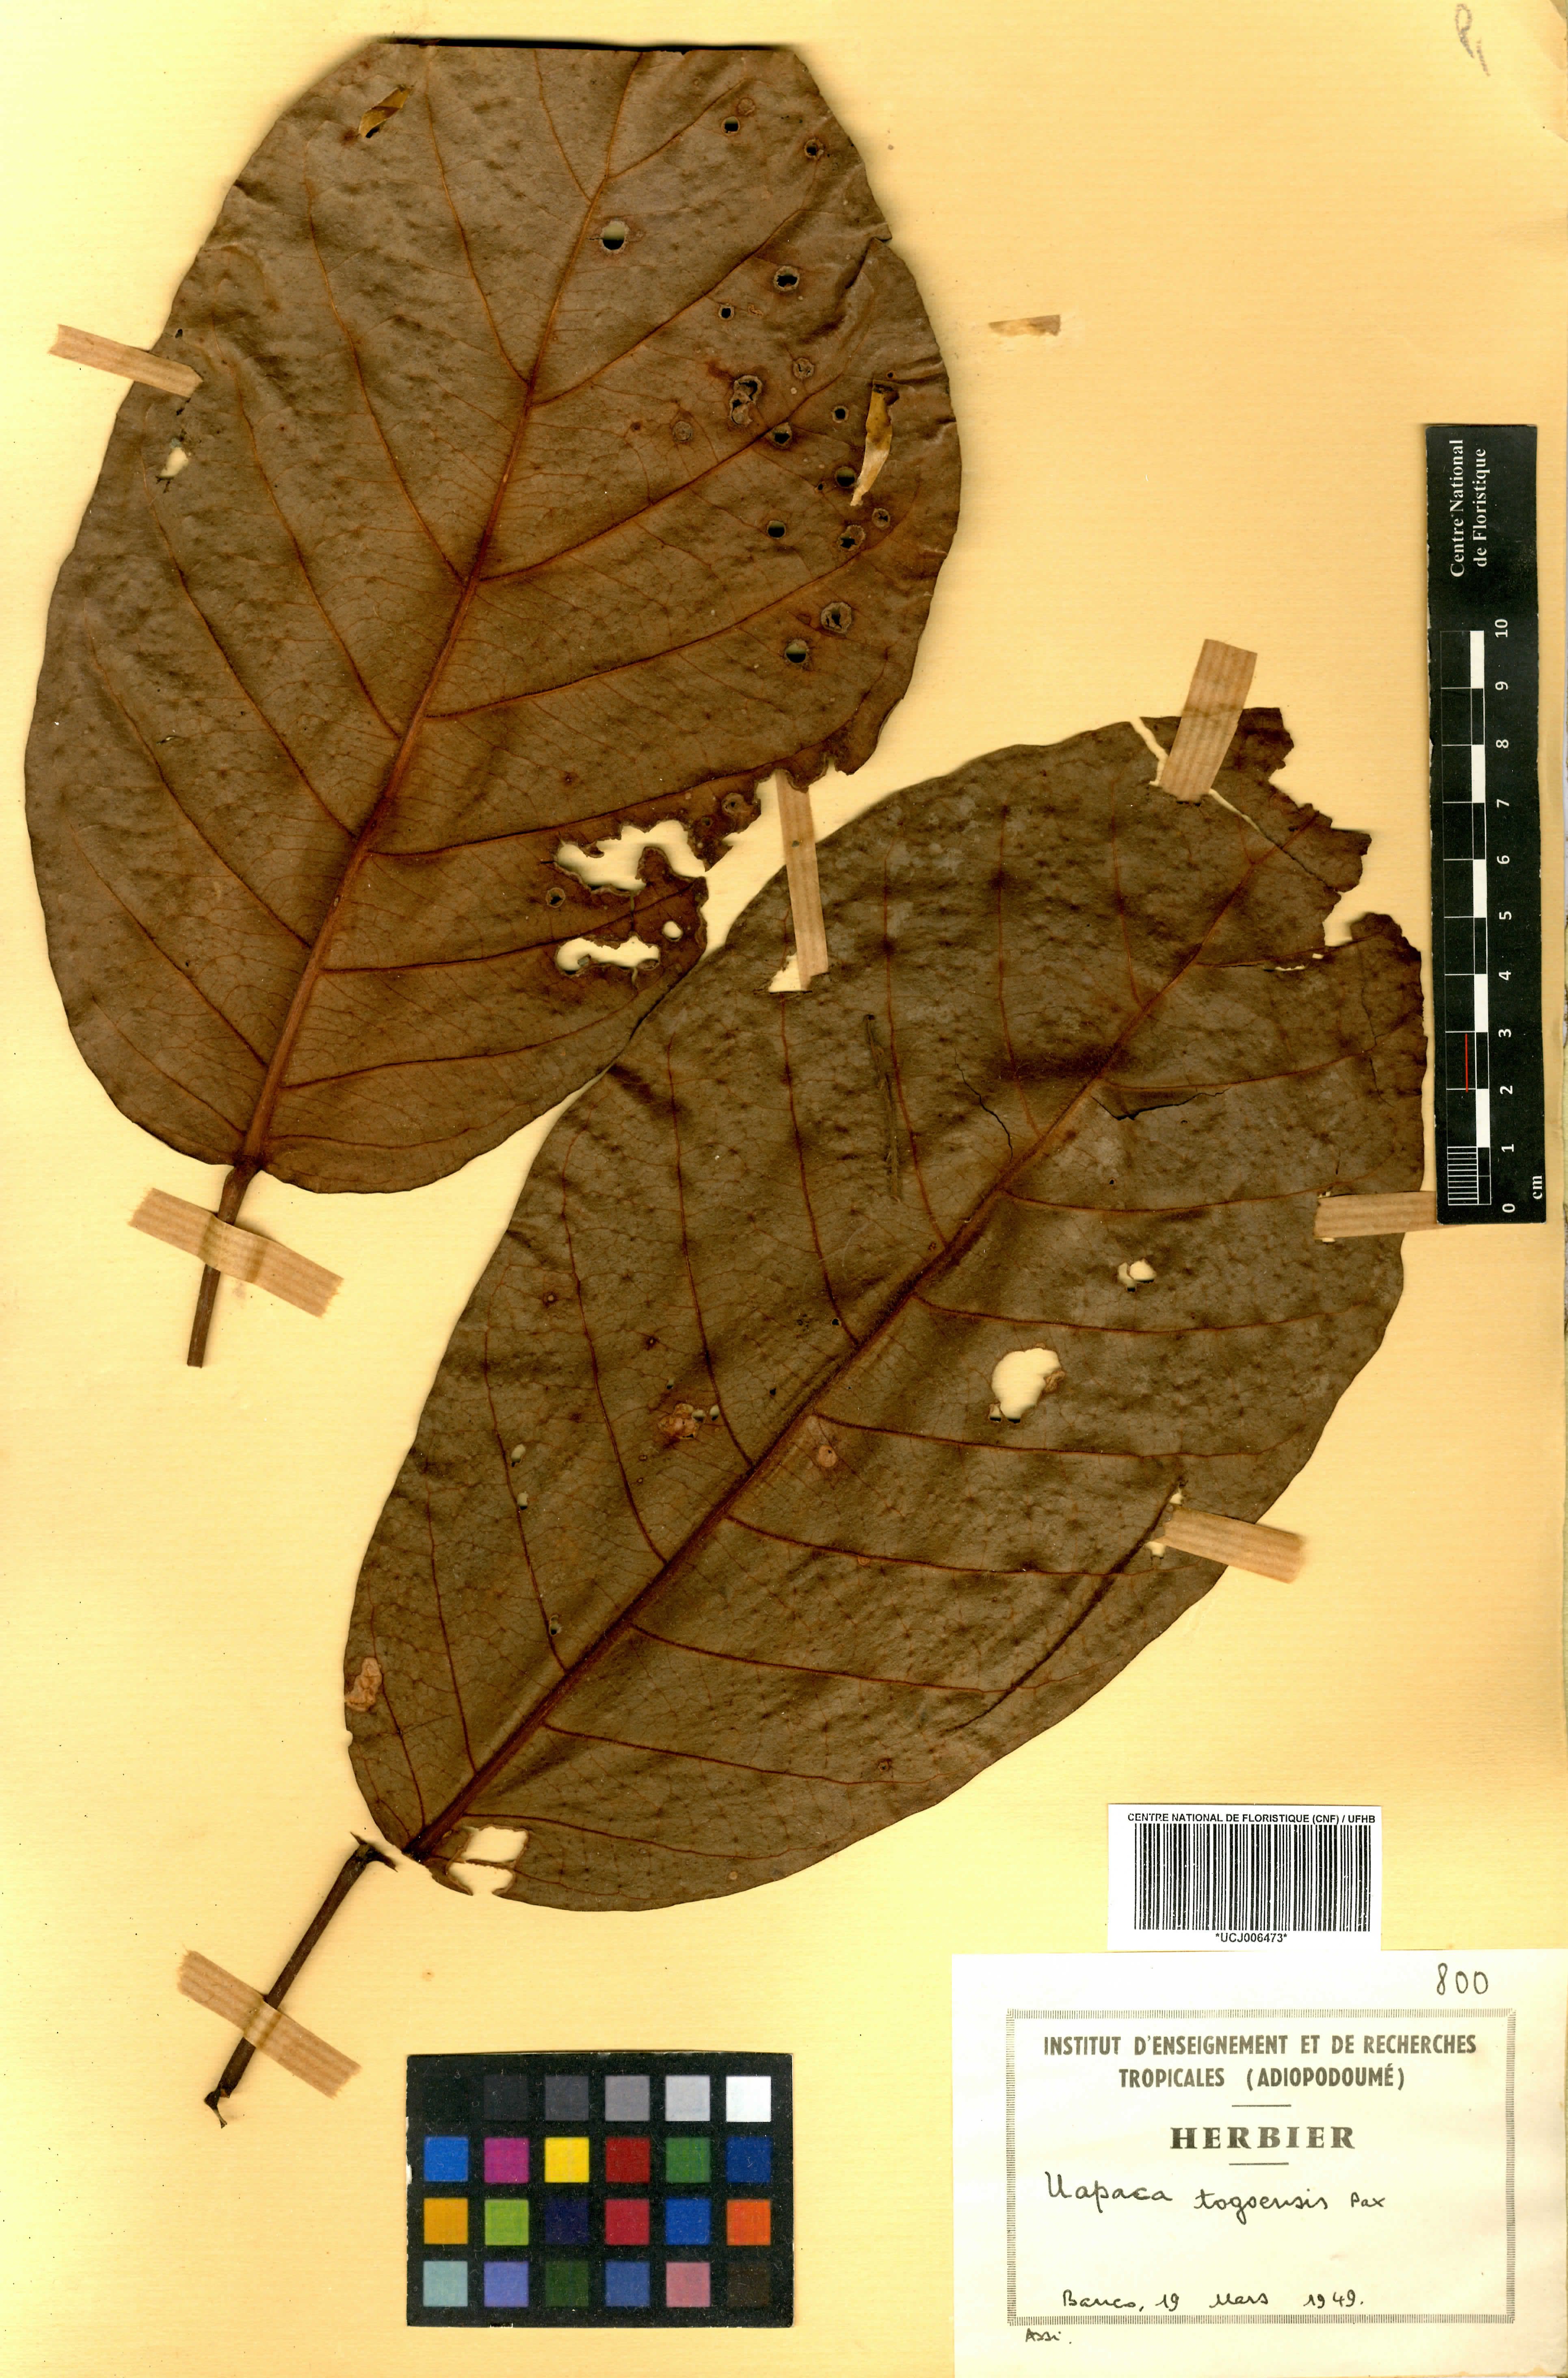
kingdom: Plantae
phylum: Tracheophyta
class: Magnoliopsida
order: Malpighiales
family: Phyllanthaceae
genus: Uapaca
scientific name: Uapaca togoensis
